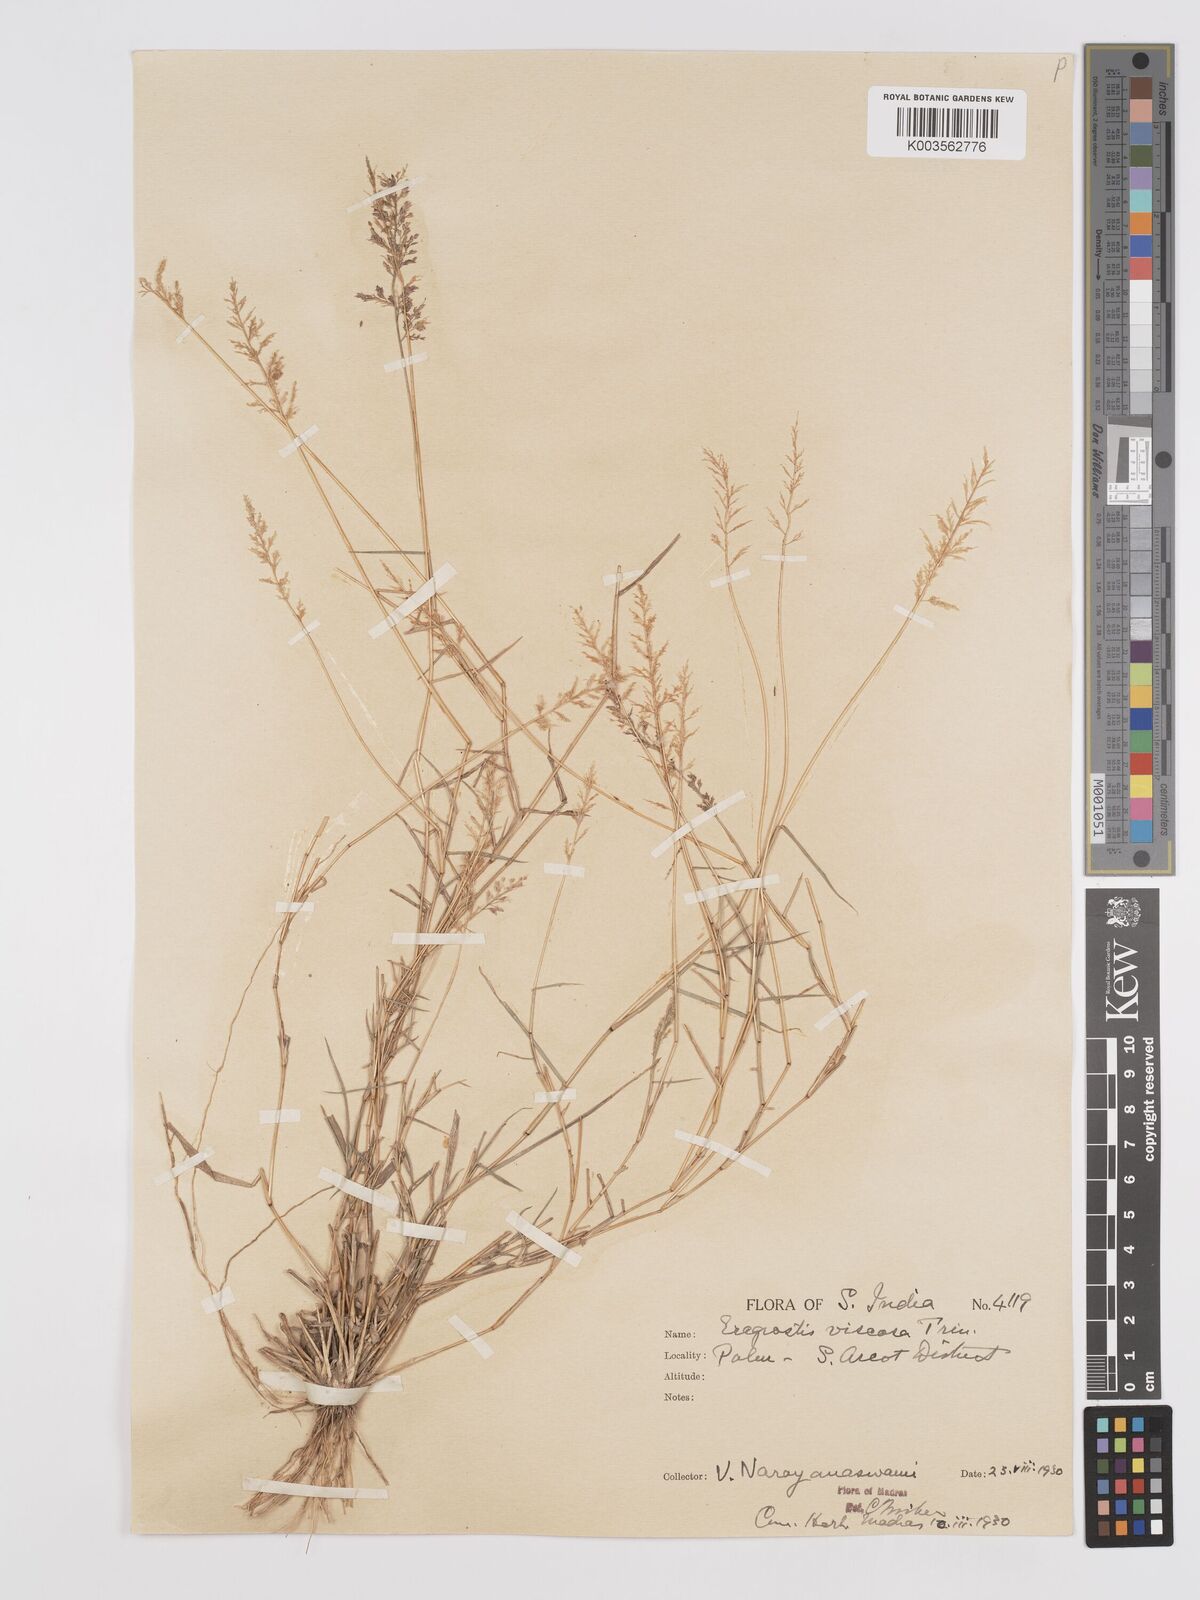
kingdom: Plantae
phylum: Tracheophyta
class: Liliopsida
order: Poales
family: Poaceae
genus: Eragrostis
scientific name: Eragrostis viscosa
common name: Sticky love grass
